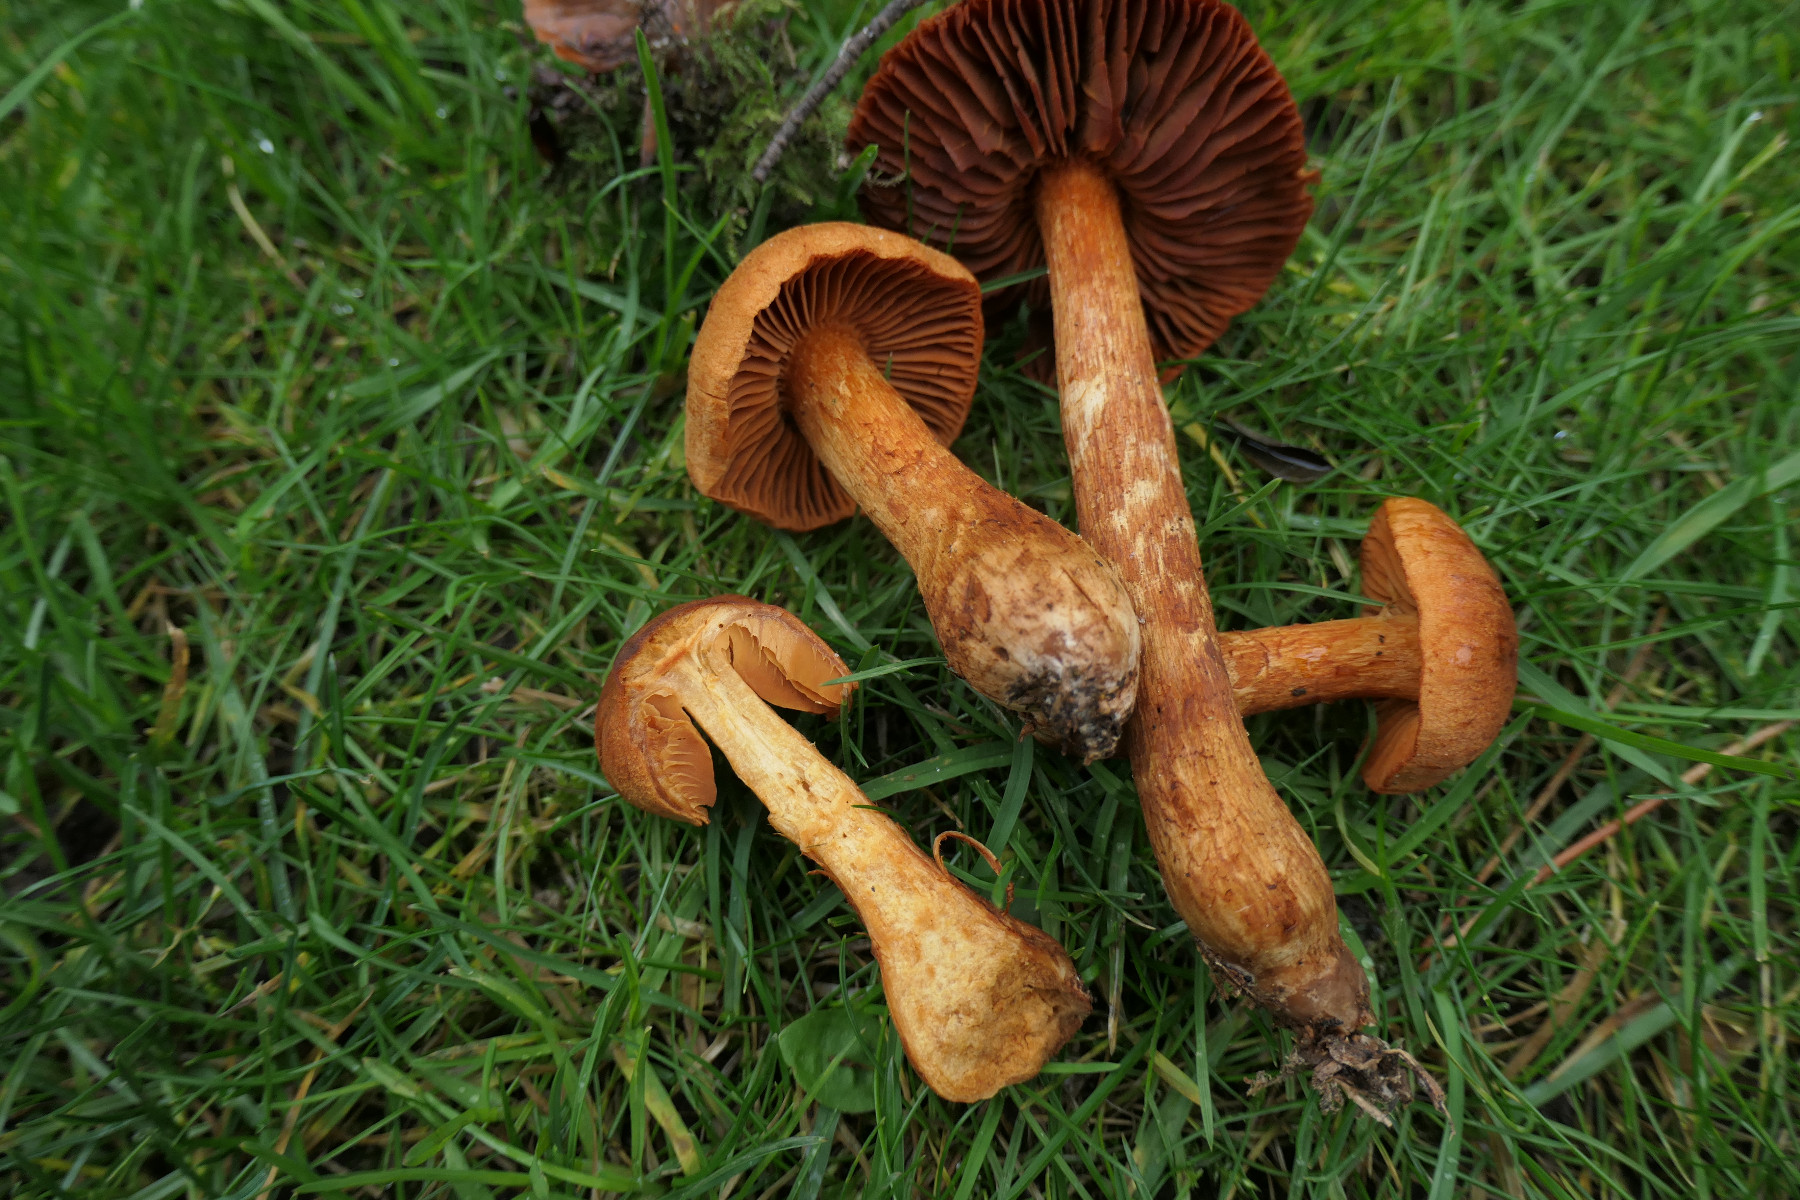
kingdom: Fungi
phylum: Basidiomycota
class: Agaricomycetes
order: Agaricales
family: Cortinariaceae
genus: Cortinarius
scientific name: Cortinarius rubellus
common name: puklet gift-slørhat
